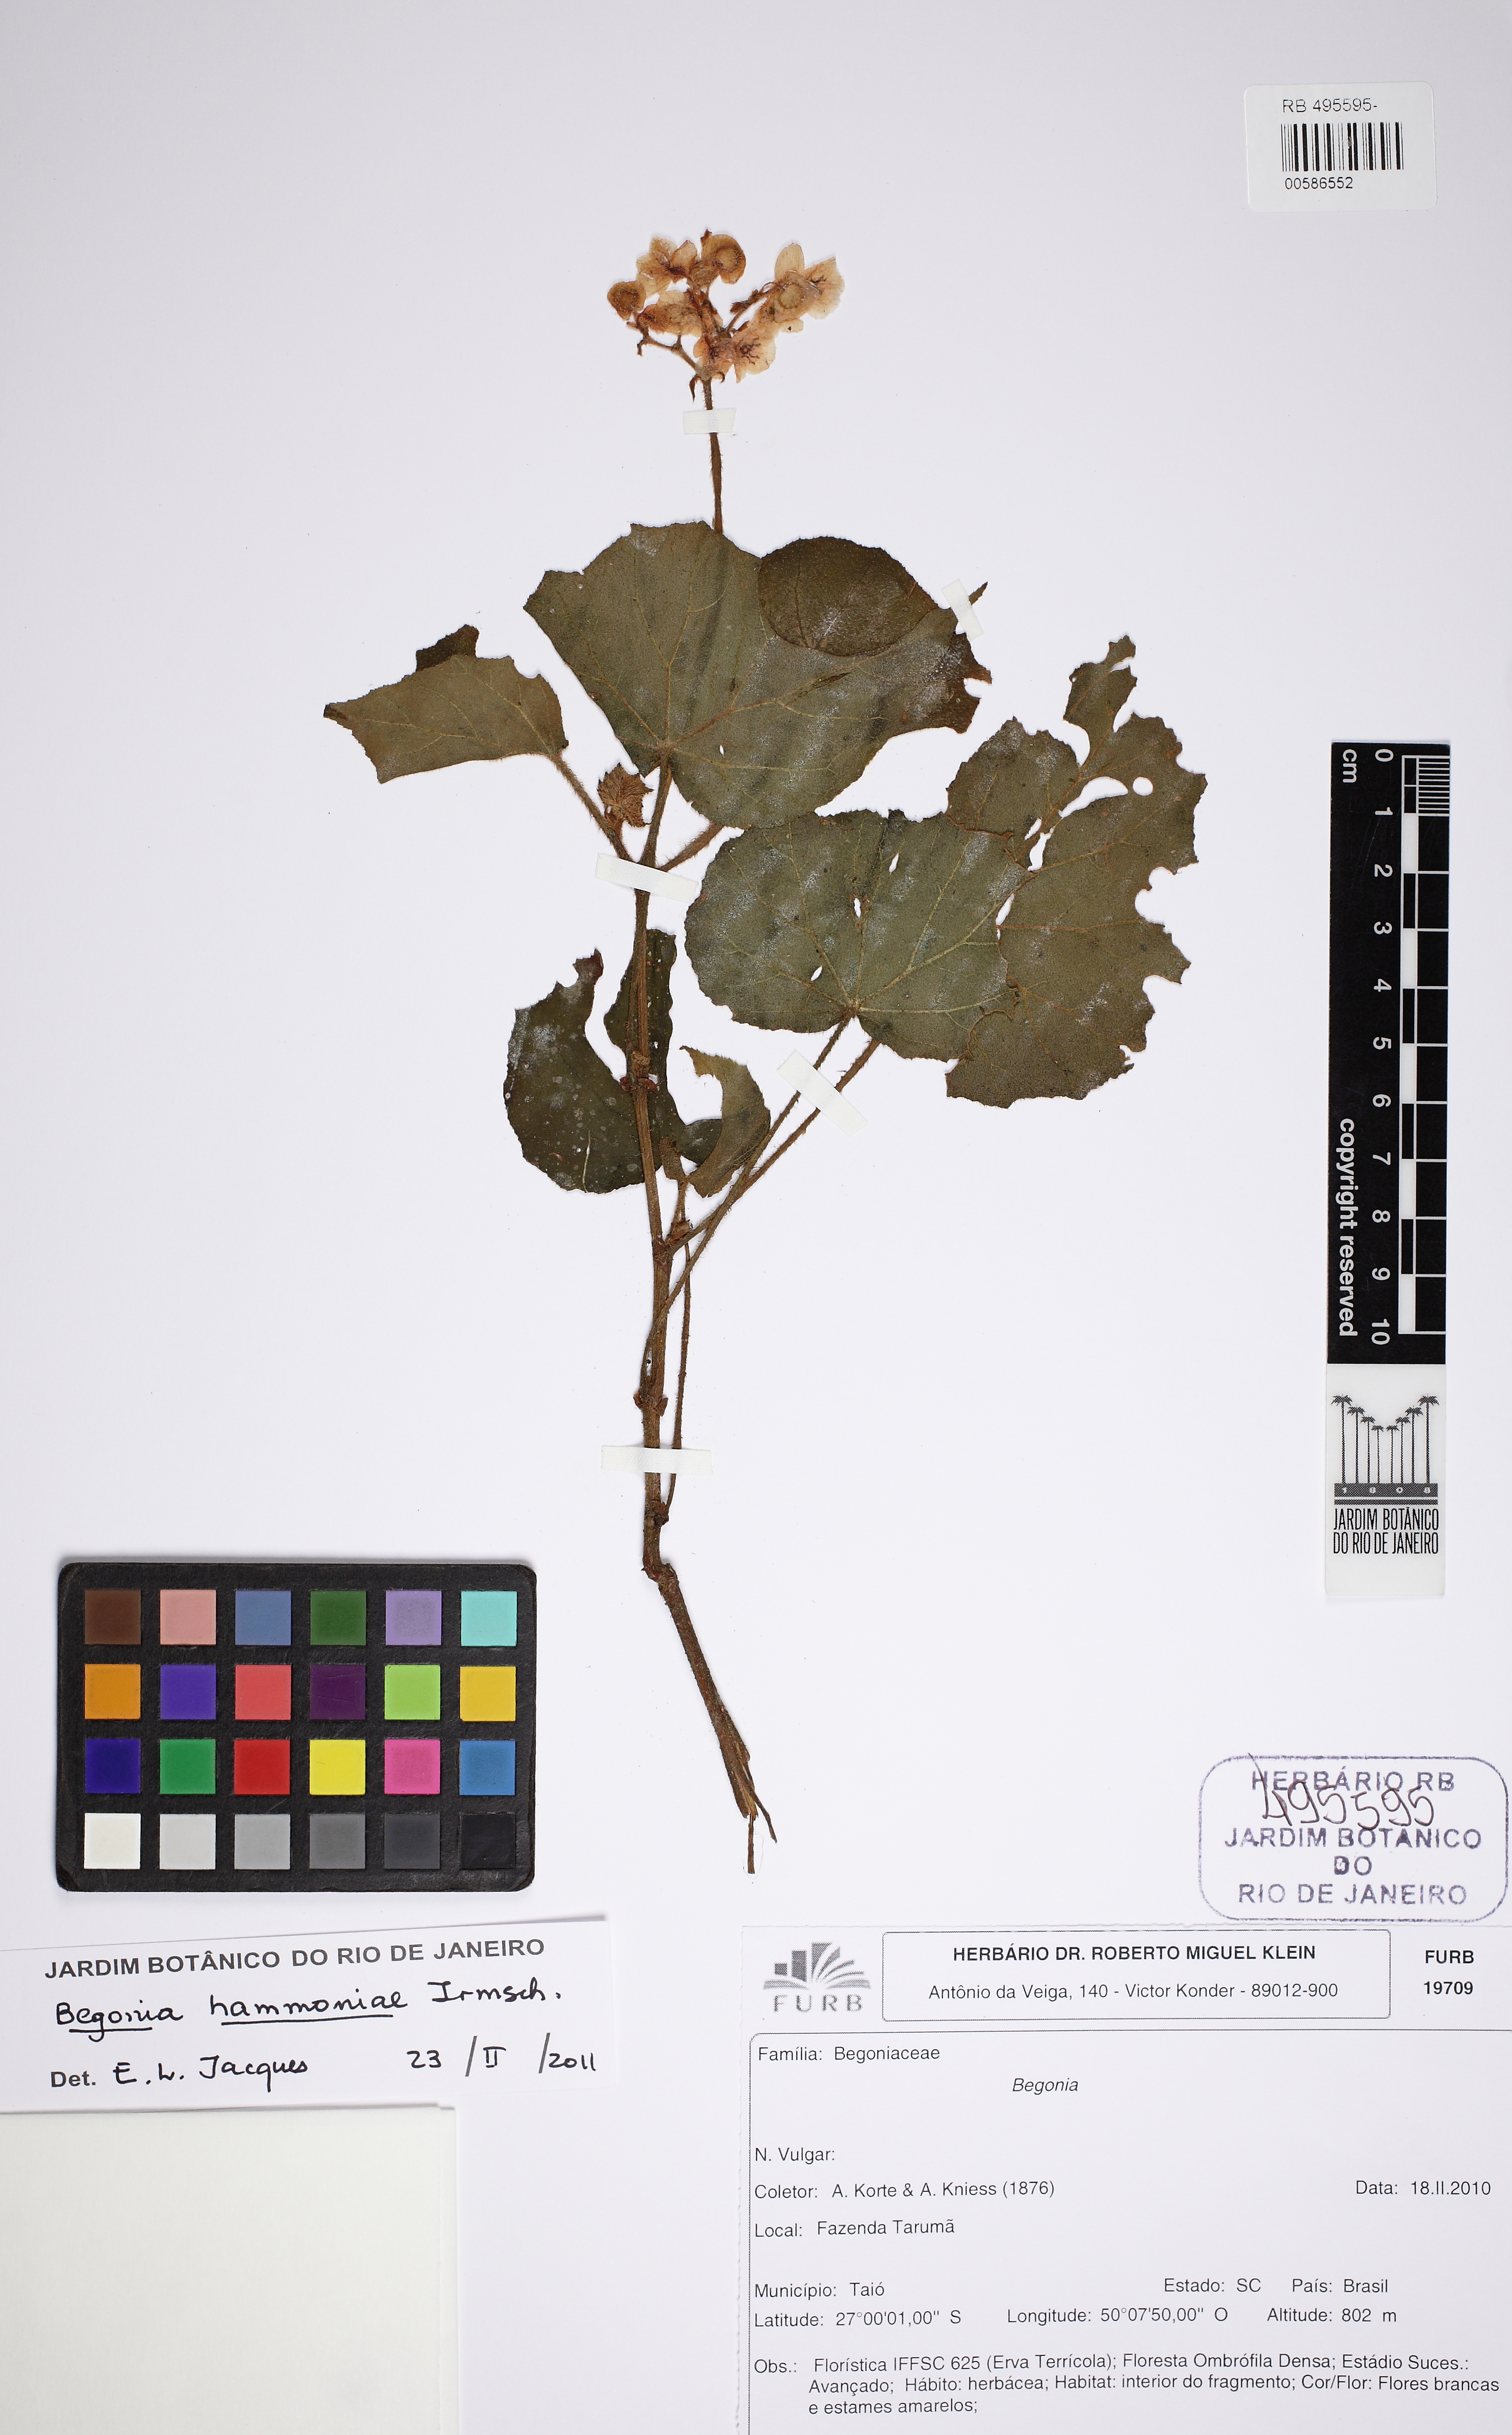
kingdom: Plantae
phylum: Tracheophyta
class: Magnoliopsida
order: Cucurbitales
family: Begoniaceae
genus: Begonia
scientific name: Begonia hammoniae
